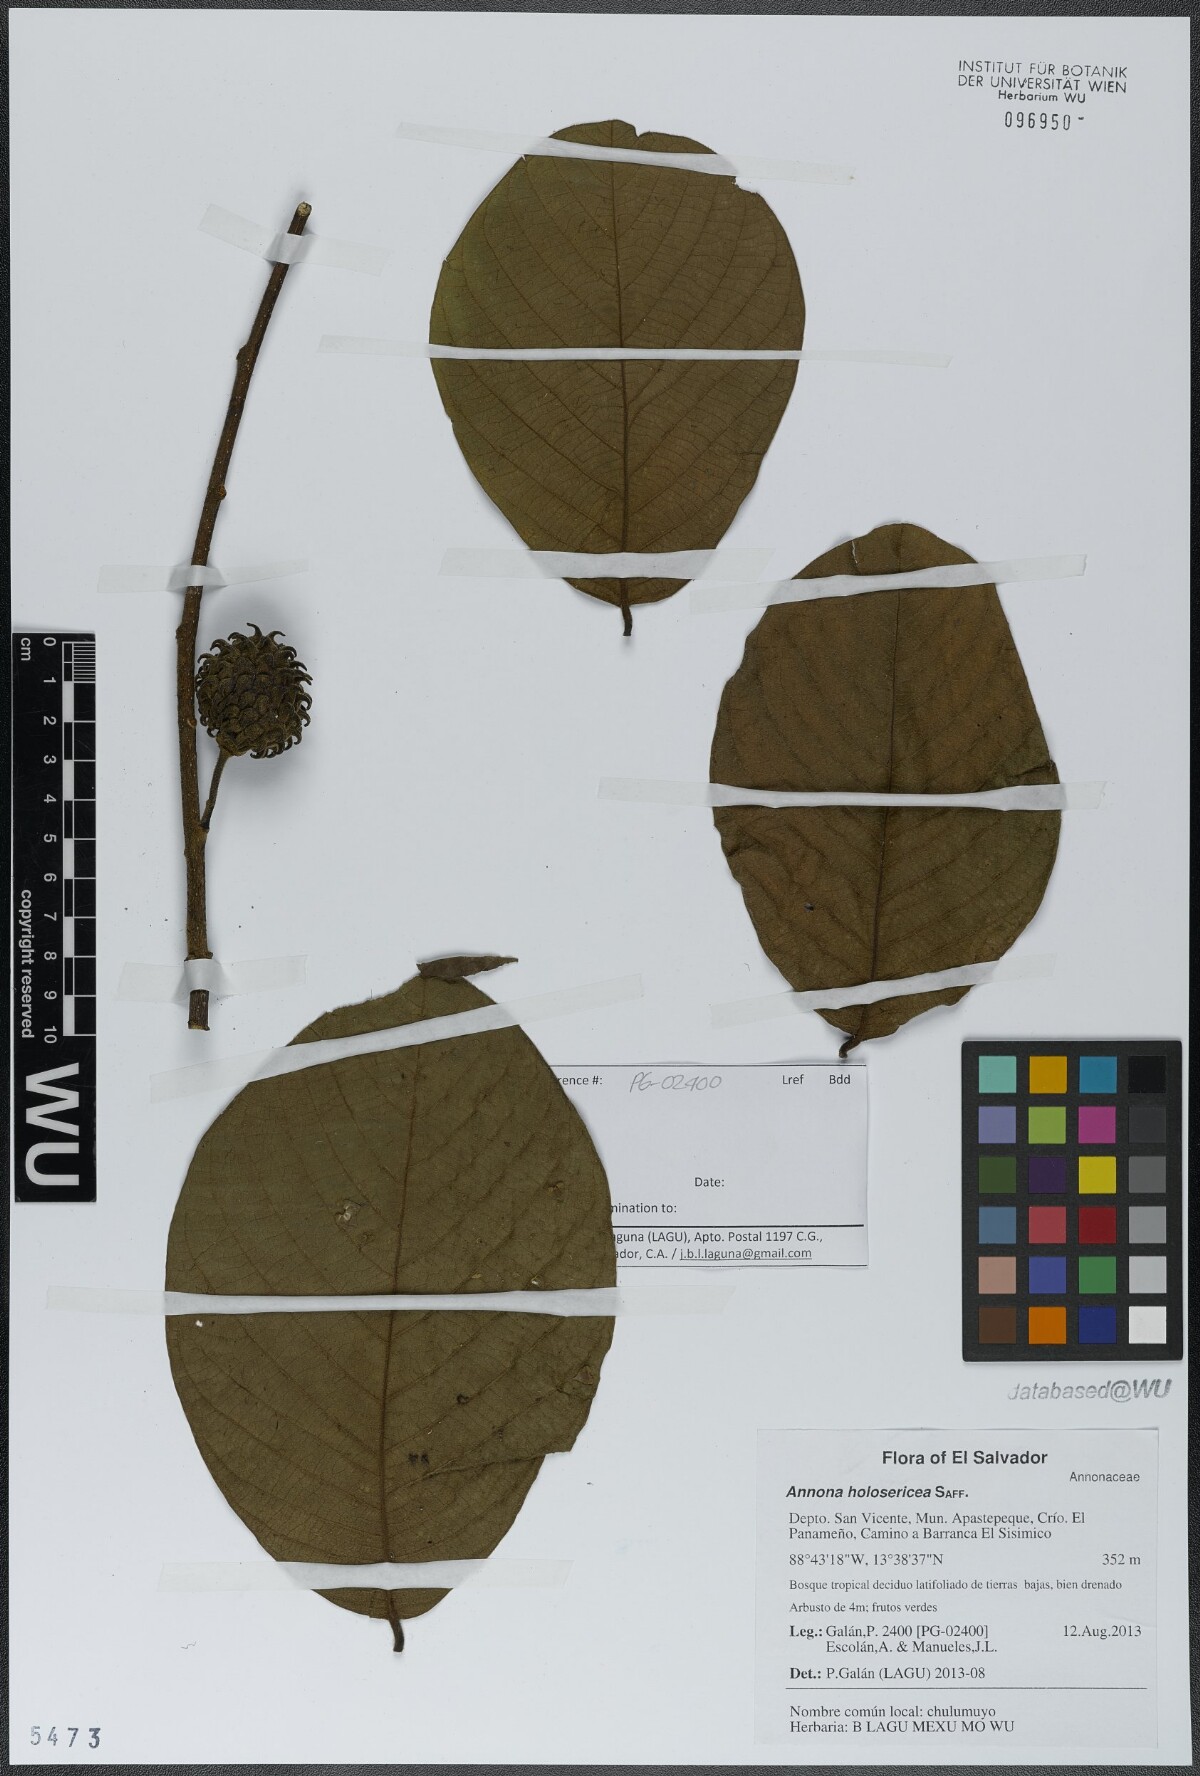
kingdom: Plantae
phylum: Tracheophyta
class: Magnoliopsida
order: Magnoliales
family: Annonaceae
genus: Annona
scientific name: Annona holosericea
